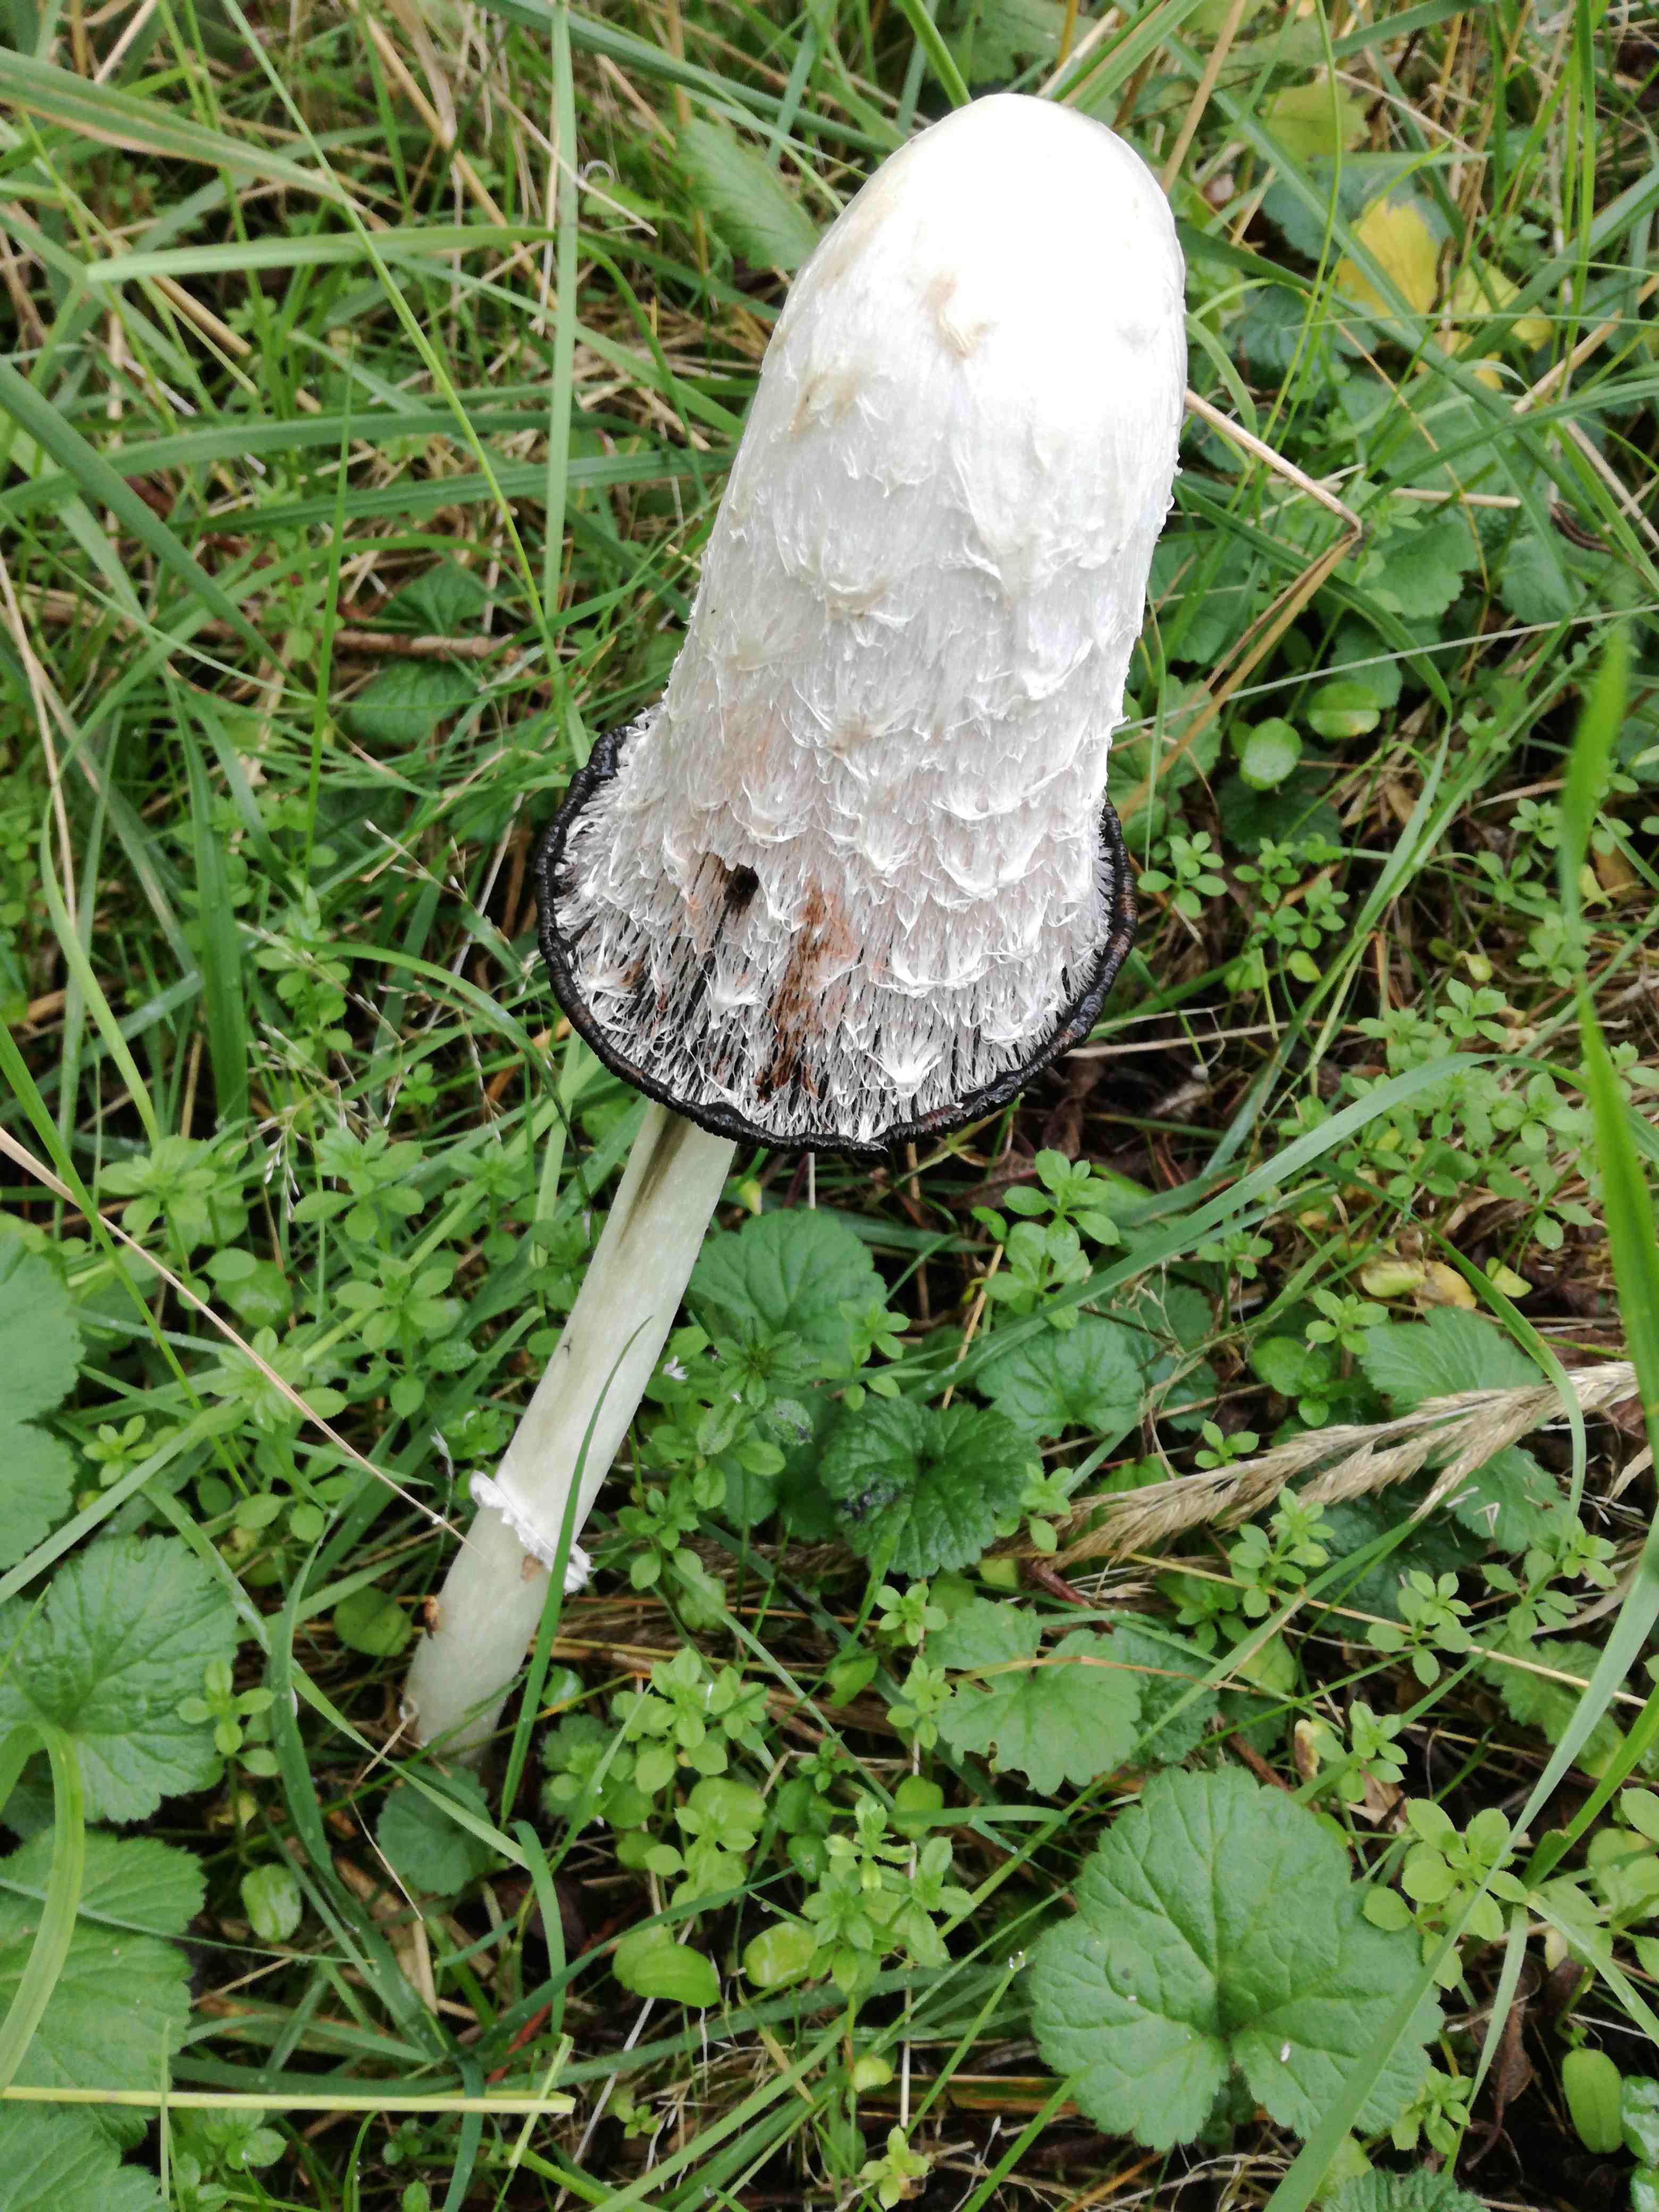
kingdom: Fungi
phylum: Basidiomycota
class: Agaricomycetes
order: Agaricales
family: Agaricaceae
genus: Coprinus
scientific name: Coprinus comatus
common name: stor parykhat
